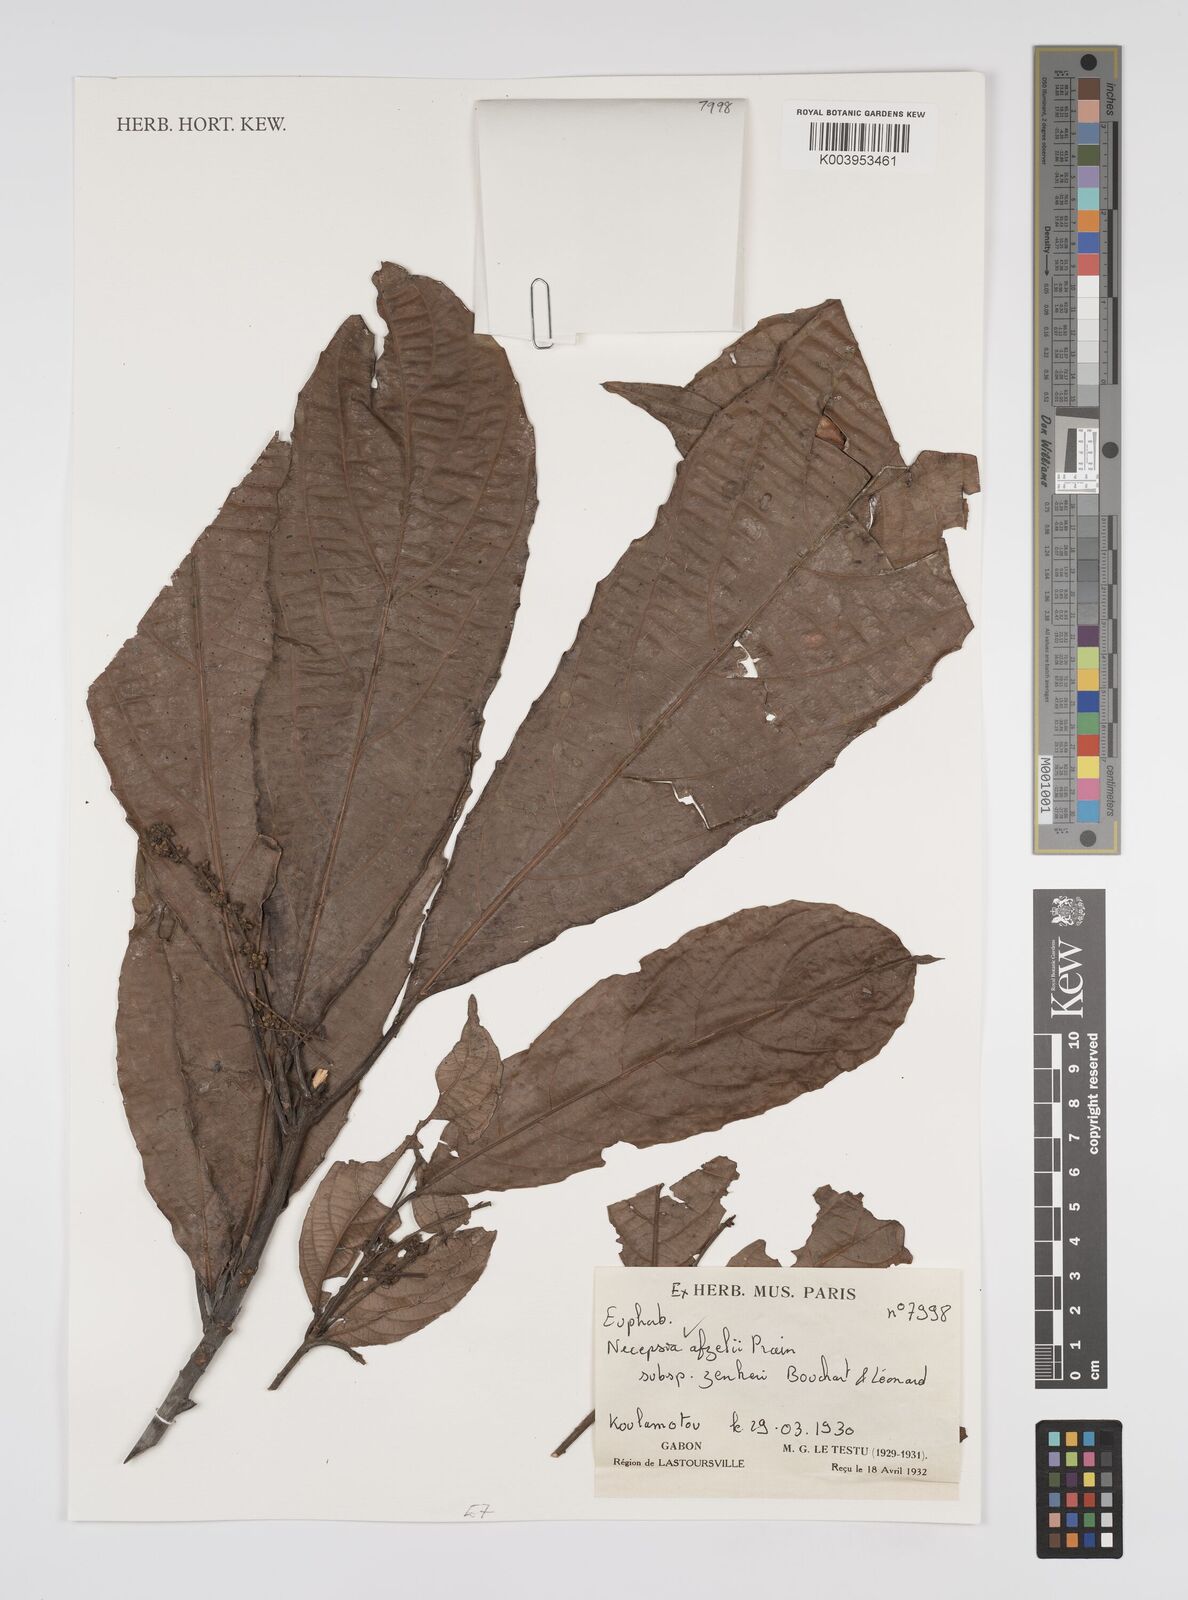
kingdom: Plantae
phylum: Tracheophyta
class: Magnoliopsida
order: Malpighiales
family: Euphorbiaceae
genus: Necepsia
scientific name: Necepsia afzelii
